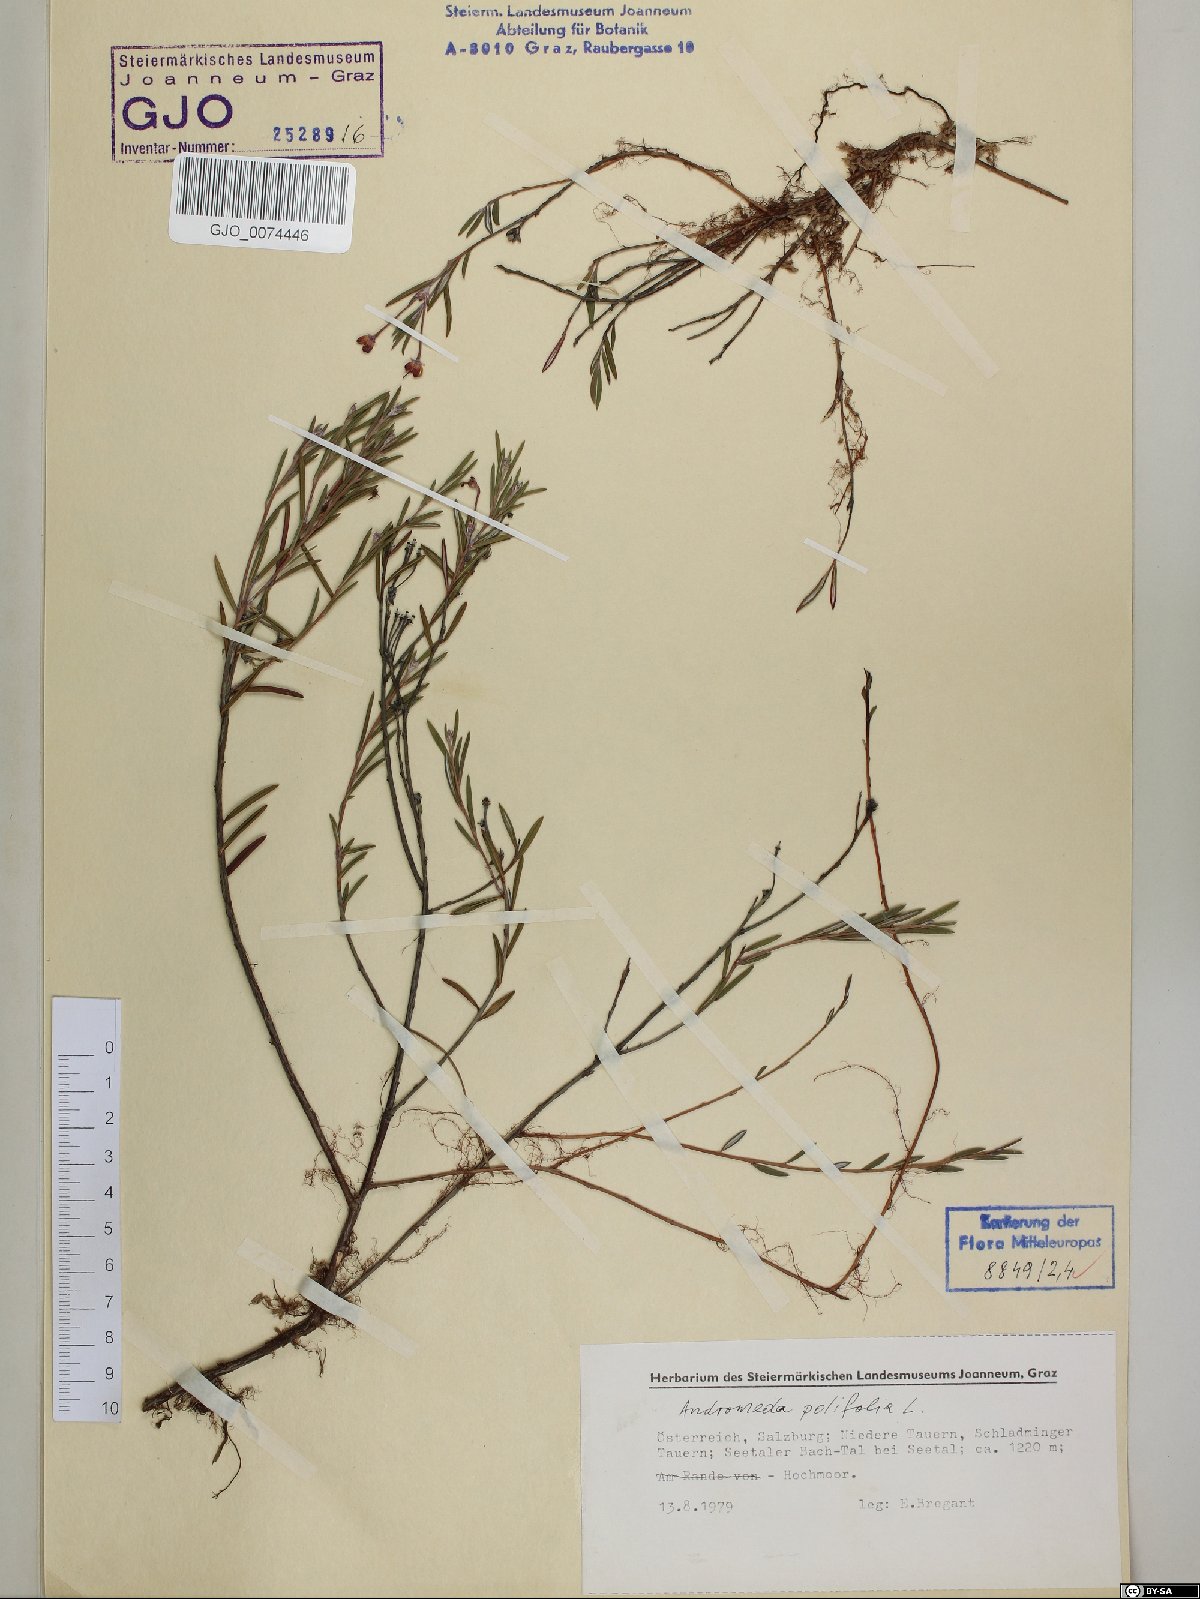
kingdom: Plantae
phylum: Tracheophyta
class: Magnoliopsida
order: Ericales
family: Ericaceae
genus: Andromeda
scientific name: Andromeda polifolia
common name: Bog-rosemary
